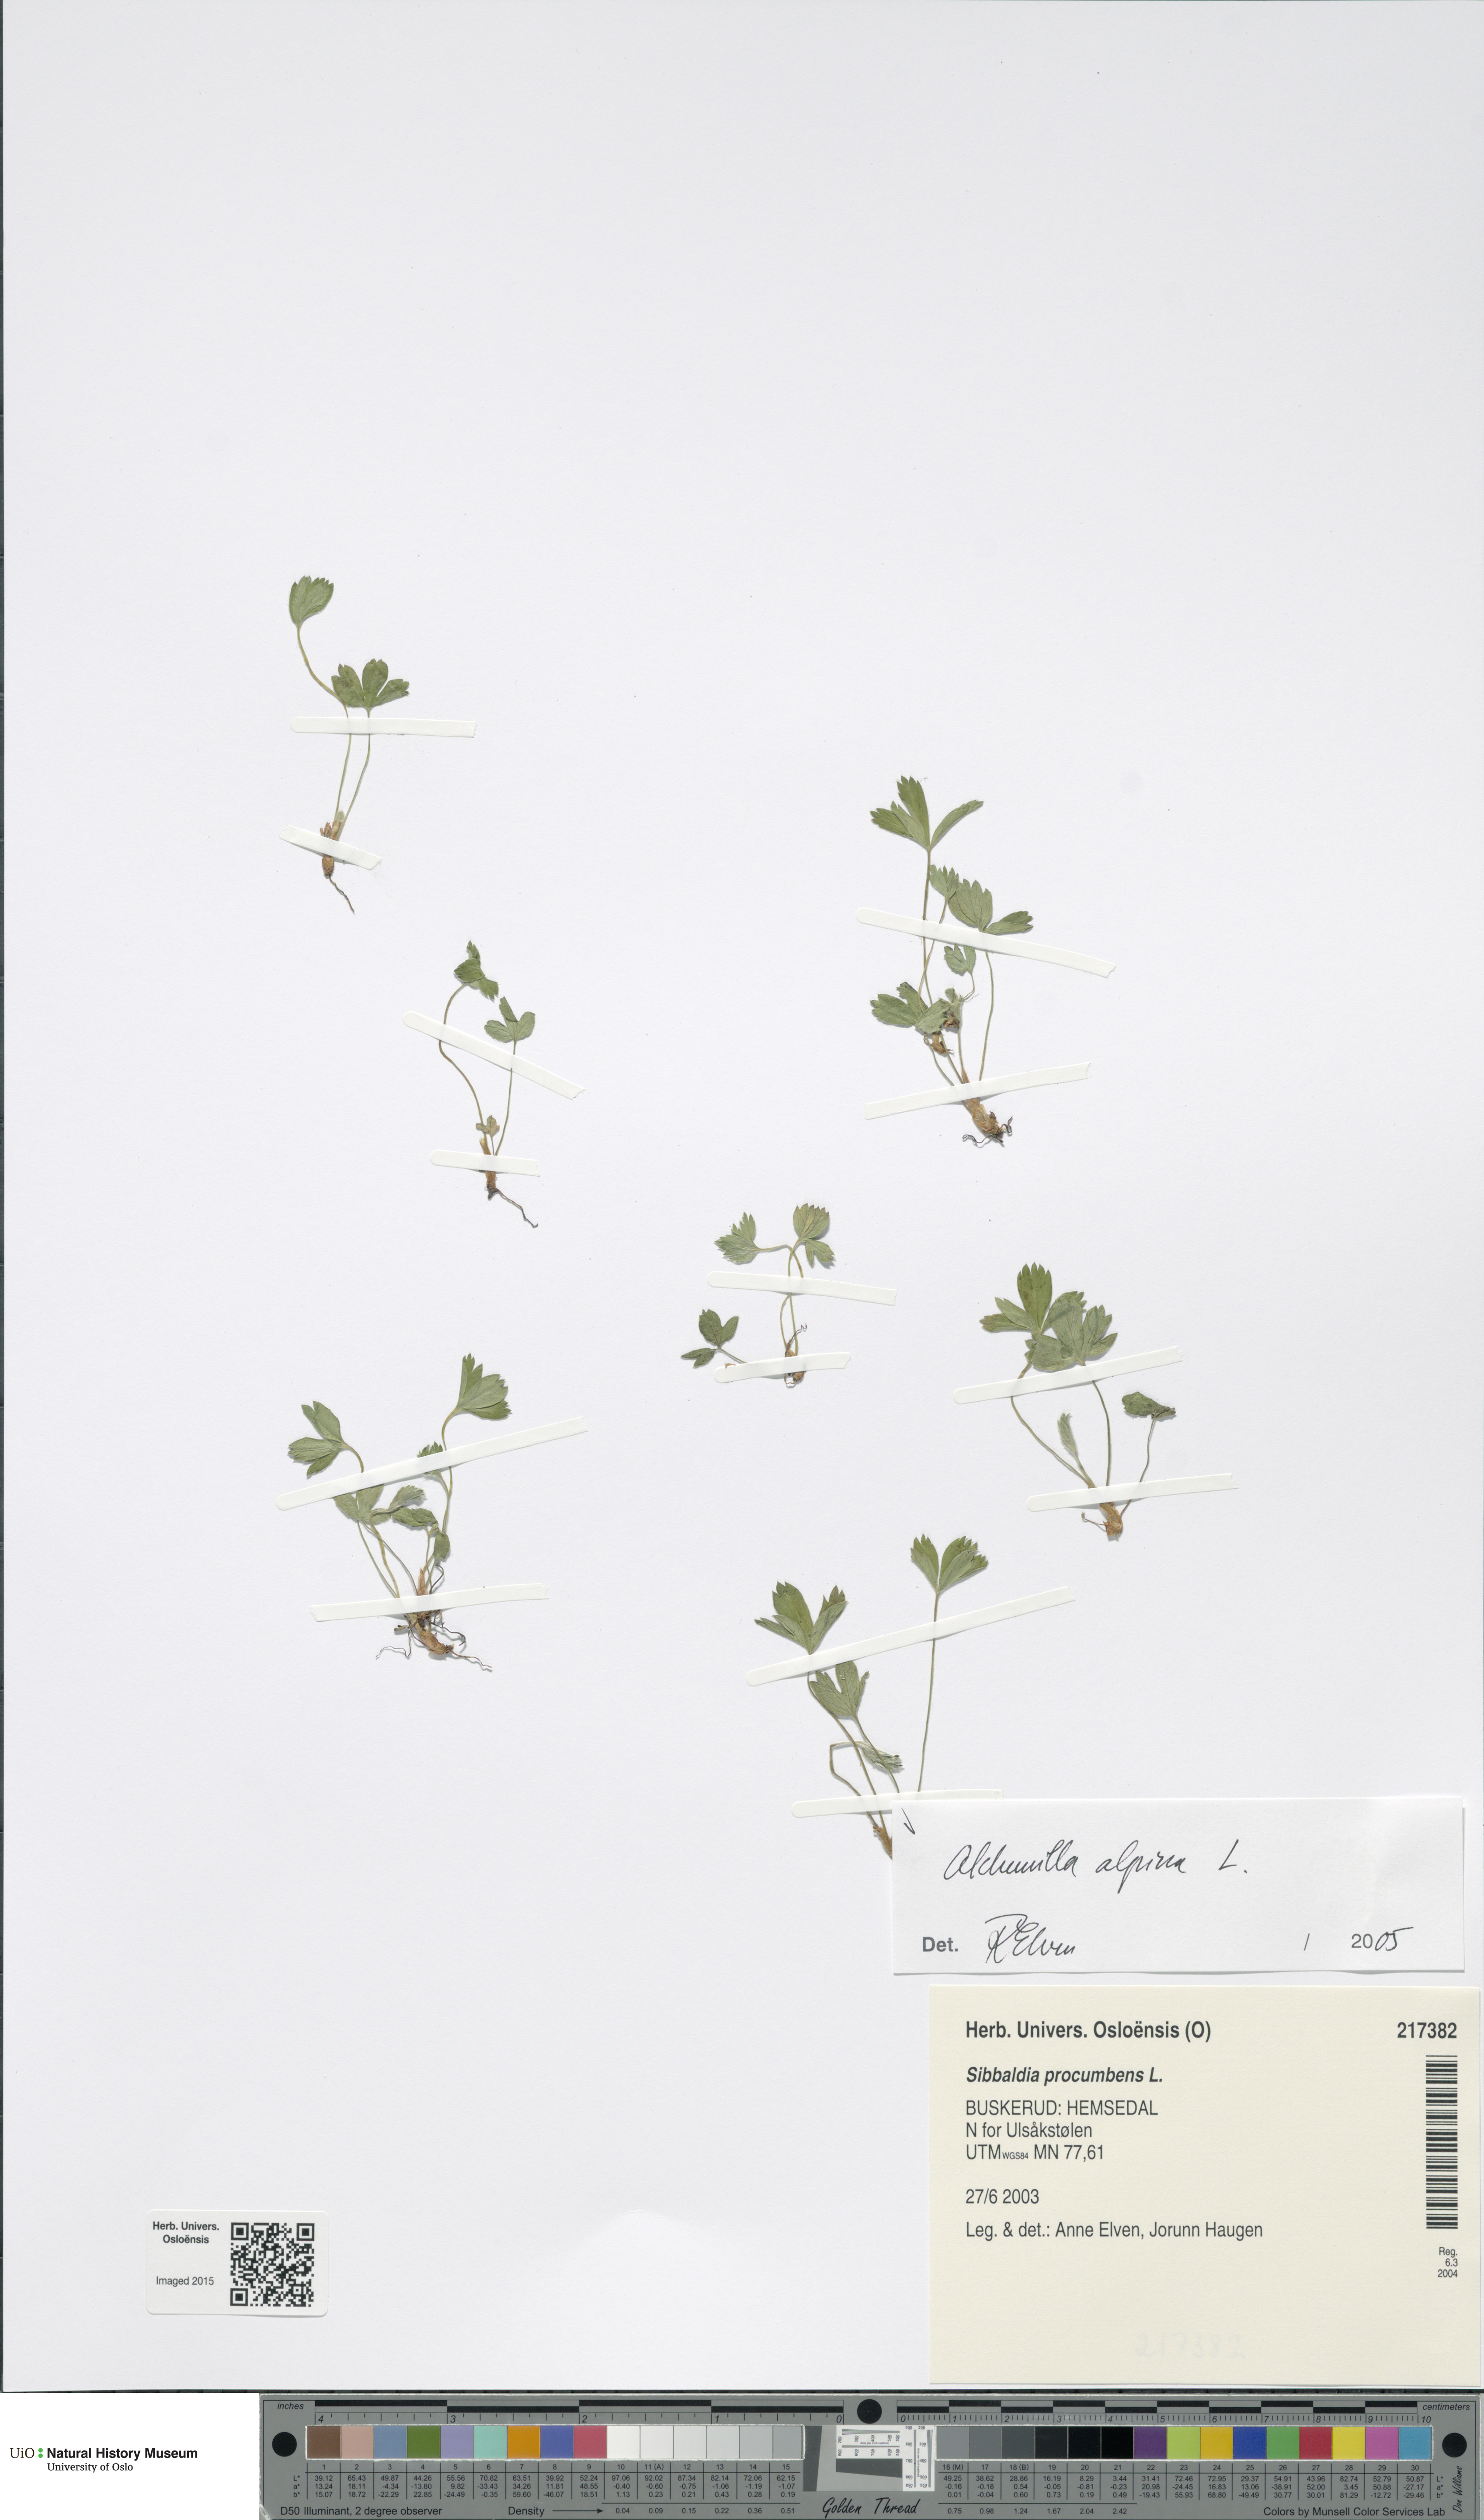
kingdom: Plantae
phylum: Tracheophyta
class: Magnoliopsida
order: Rosales
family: Rosaceae
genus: Sibbaldia
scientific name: Sibbaldia procumbens
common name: Creeping sibbaldia
